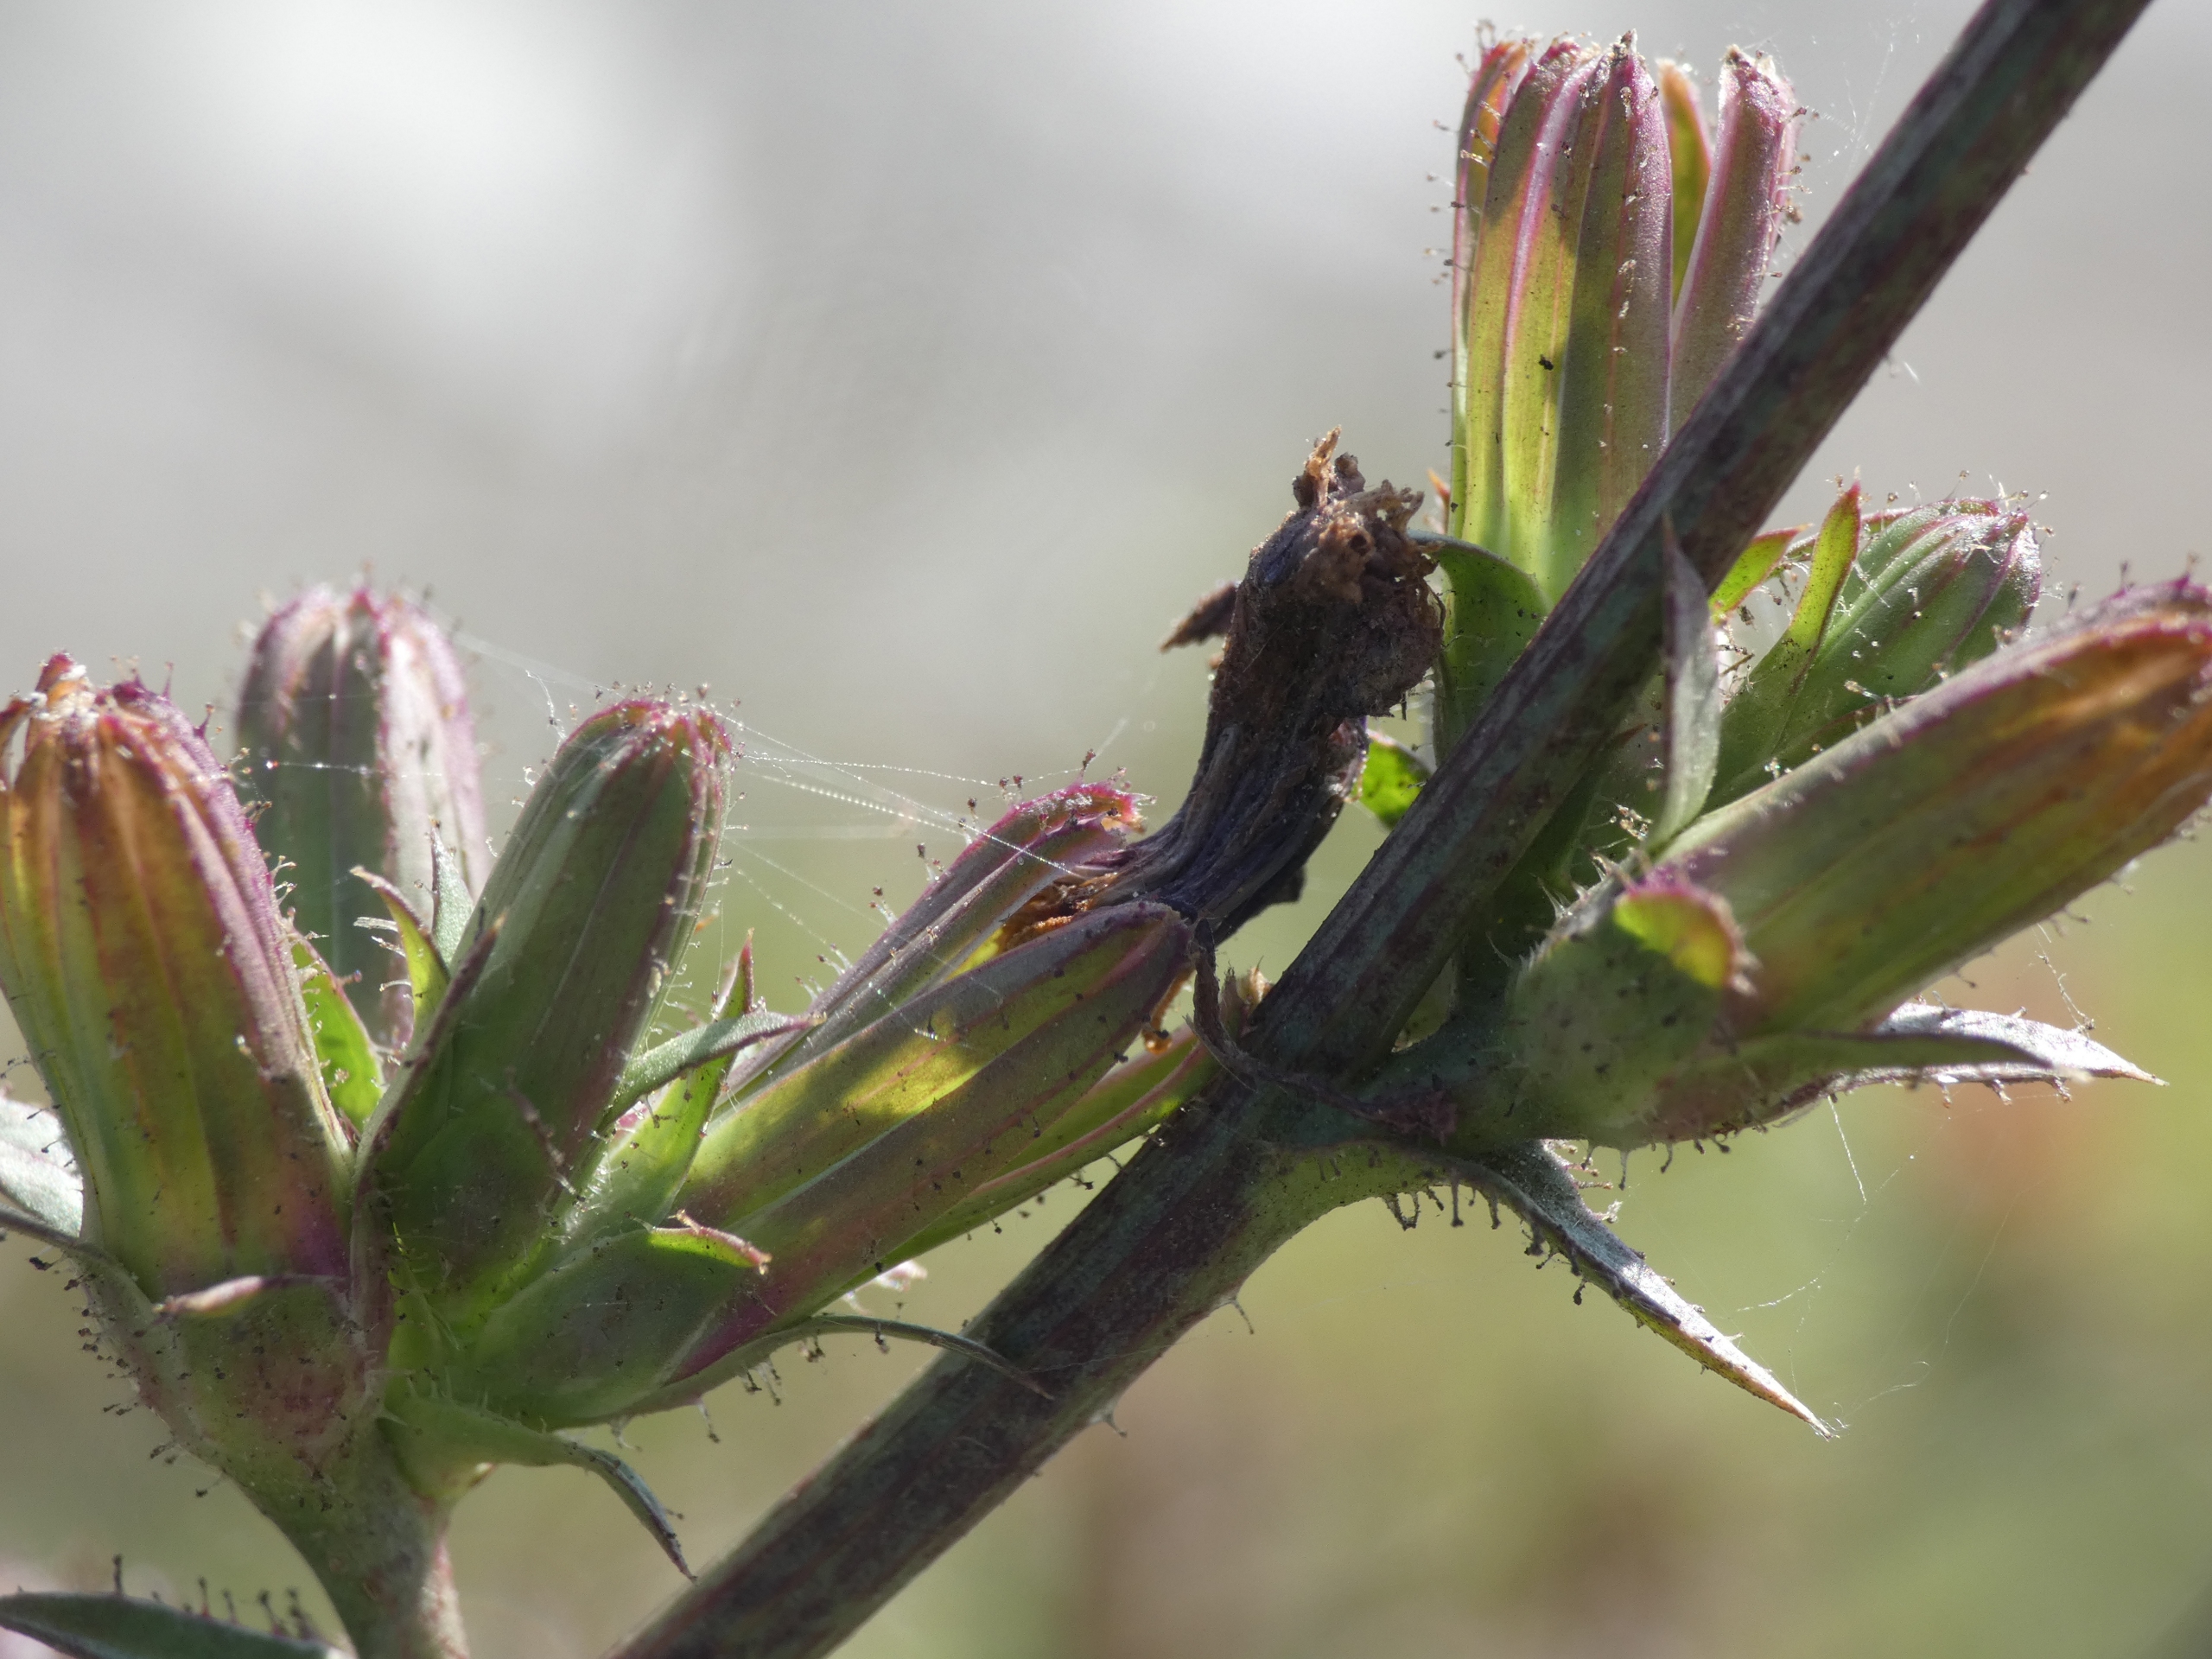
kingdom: Plantae
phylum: Tracheophyta
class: Magnoliopsida
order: Asterales
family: Asteraceae
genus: Cichorium
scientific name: Cichorium intybus
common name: Cikorie
